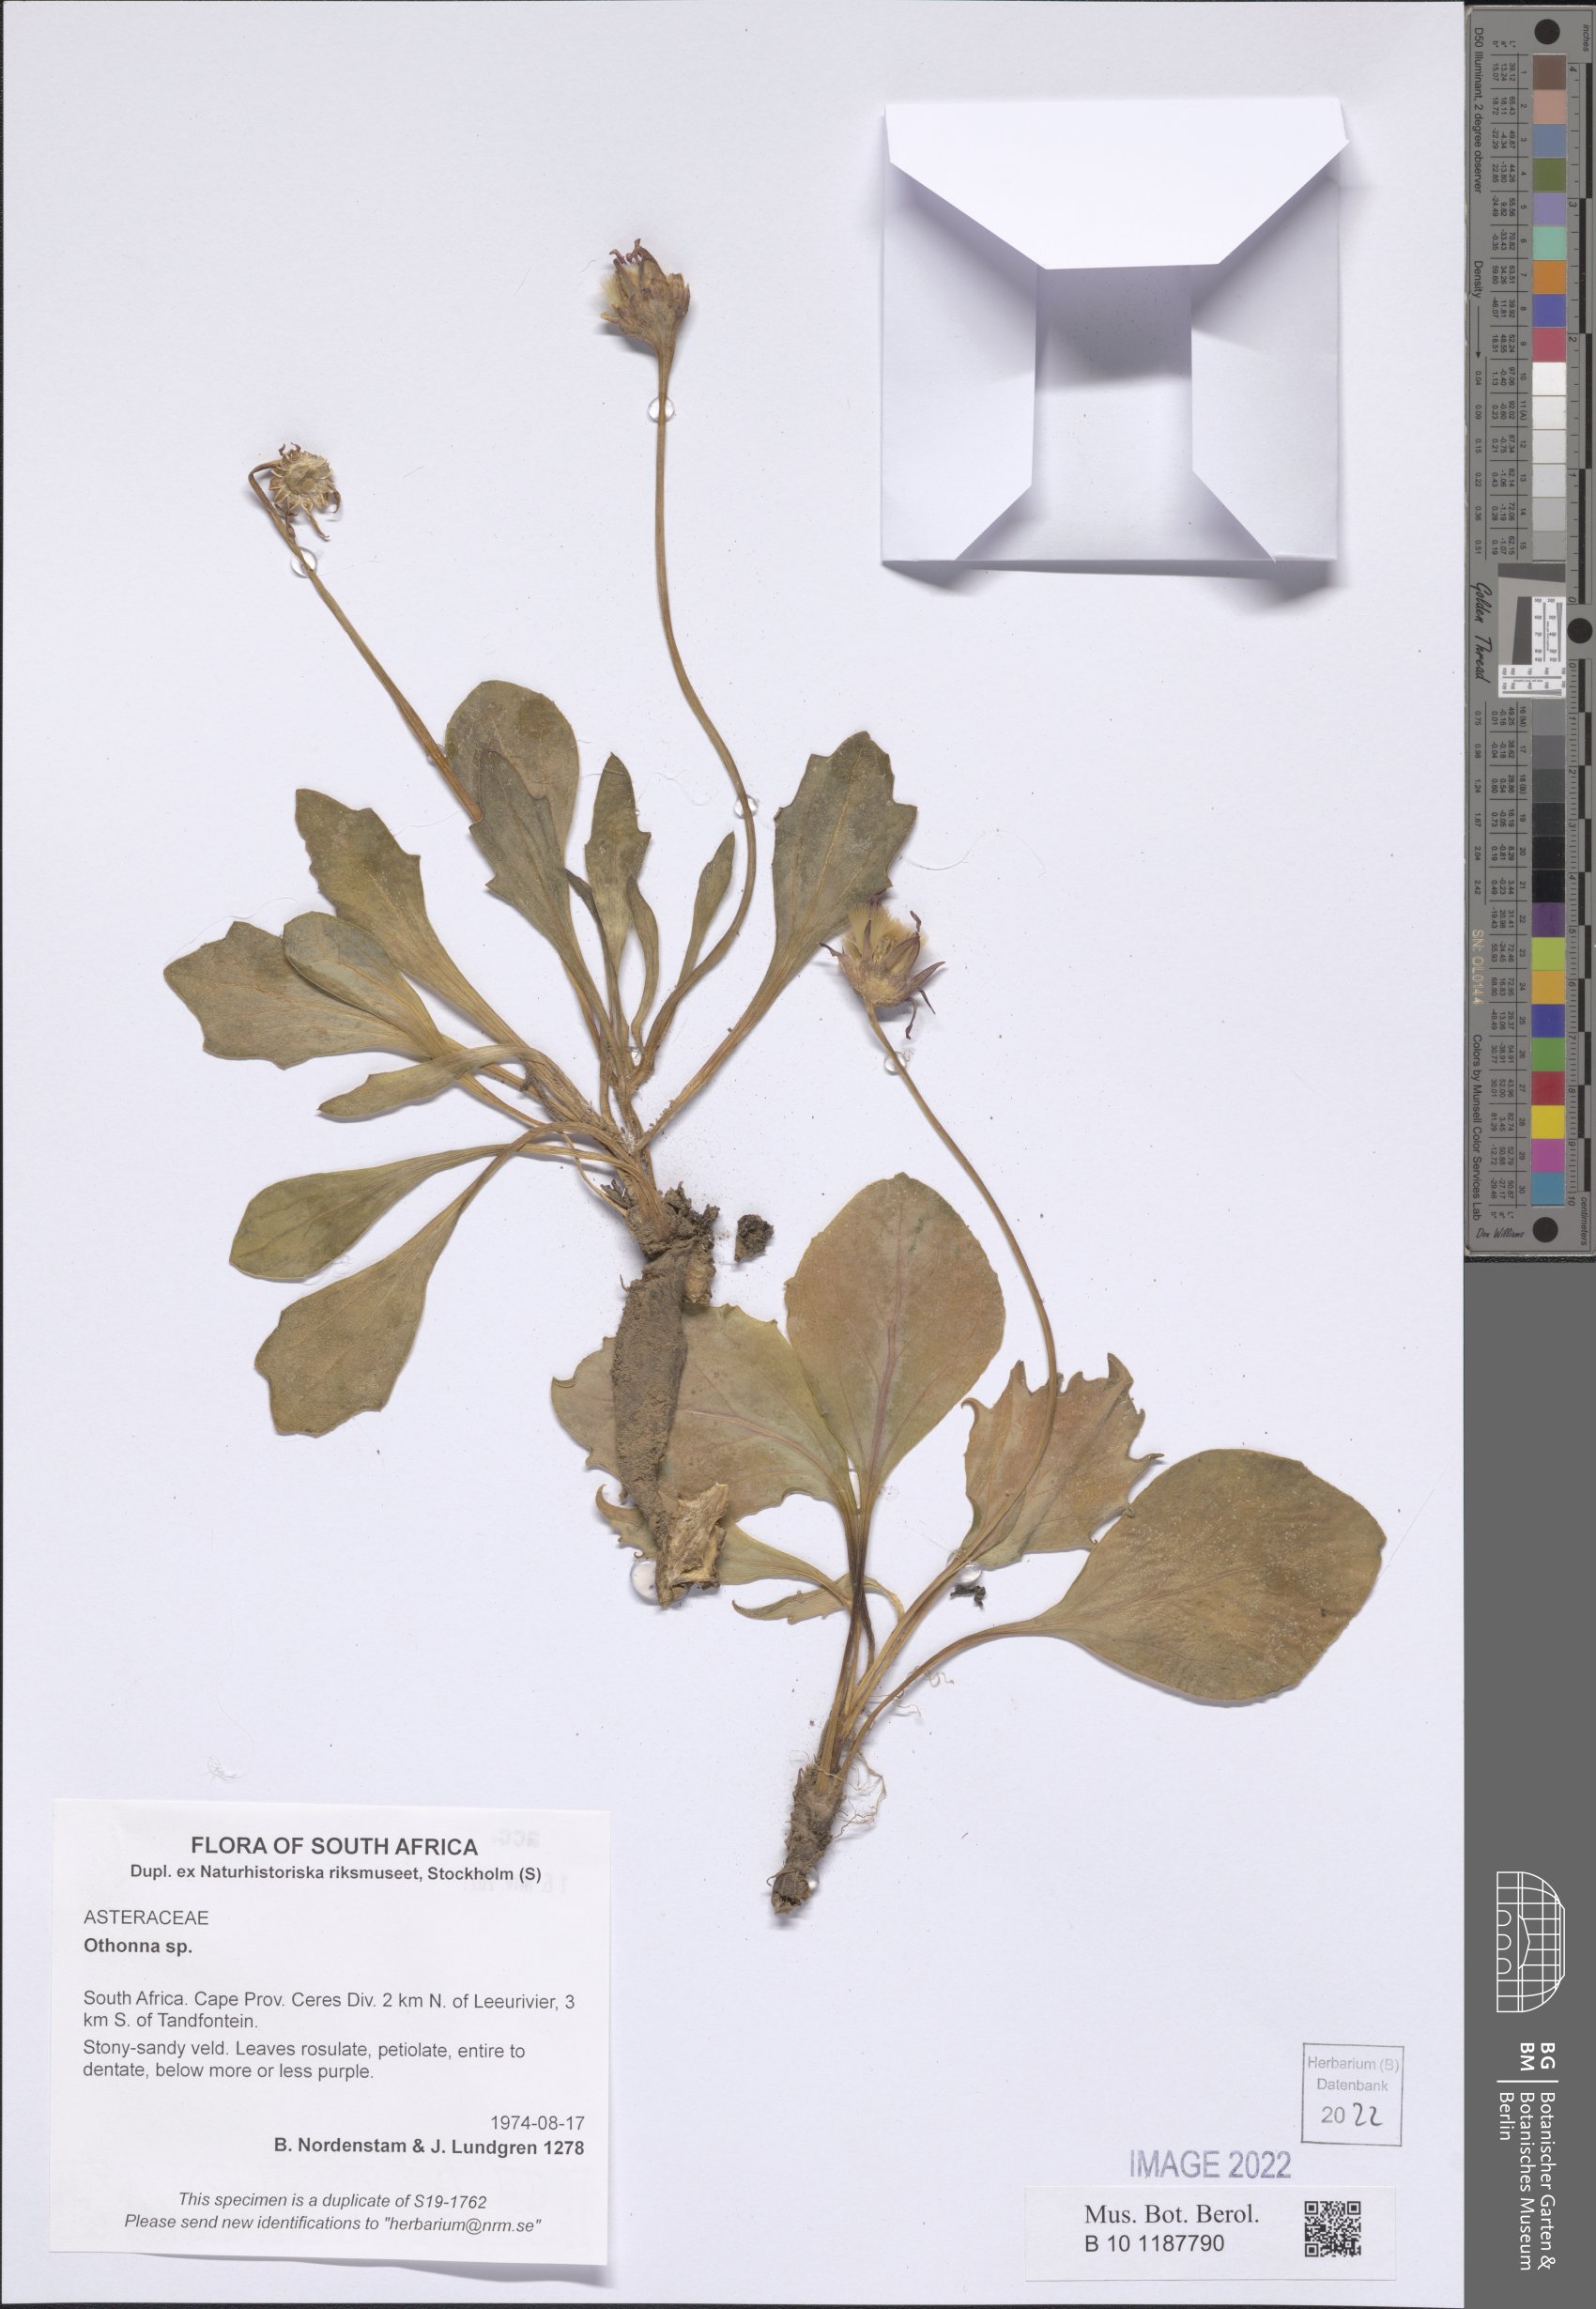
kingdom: Plantae
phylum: Tracheophyta
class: Magnoliopsida
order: Asterales
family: Asteraceae
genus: Othonna
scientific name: Othonna
